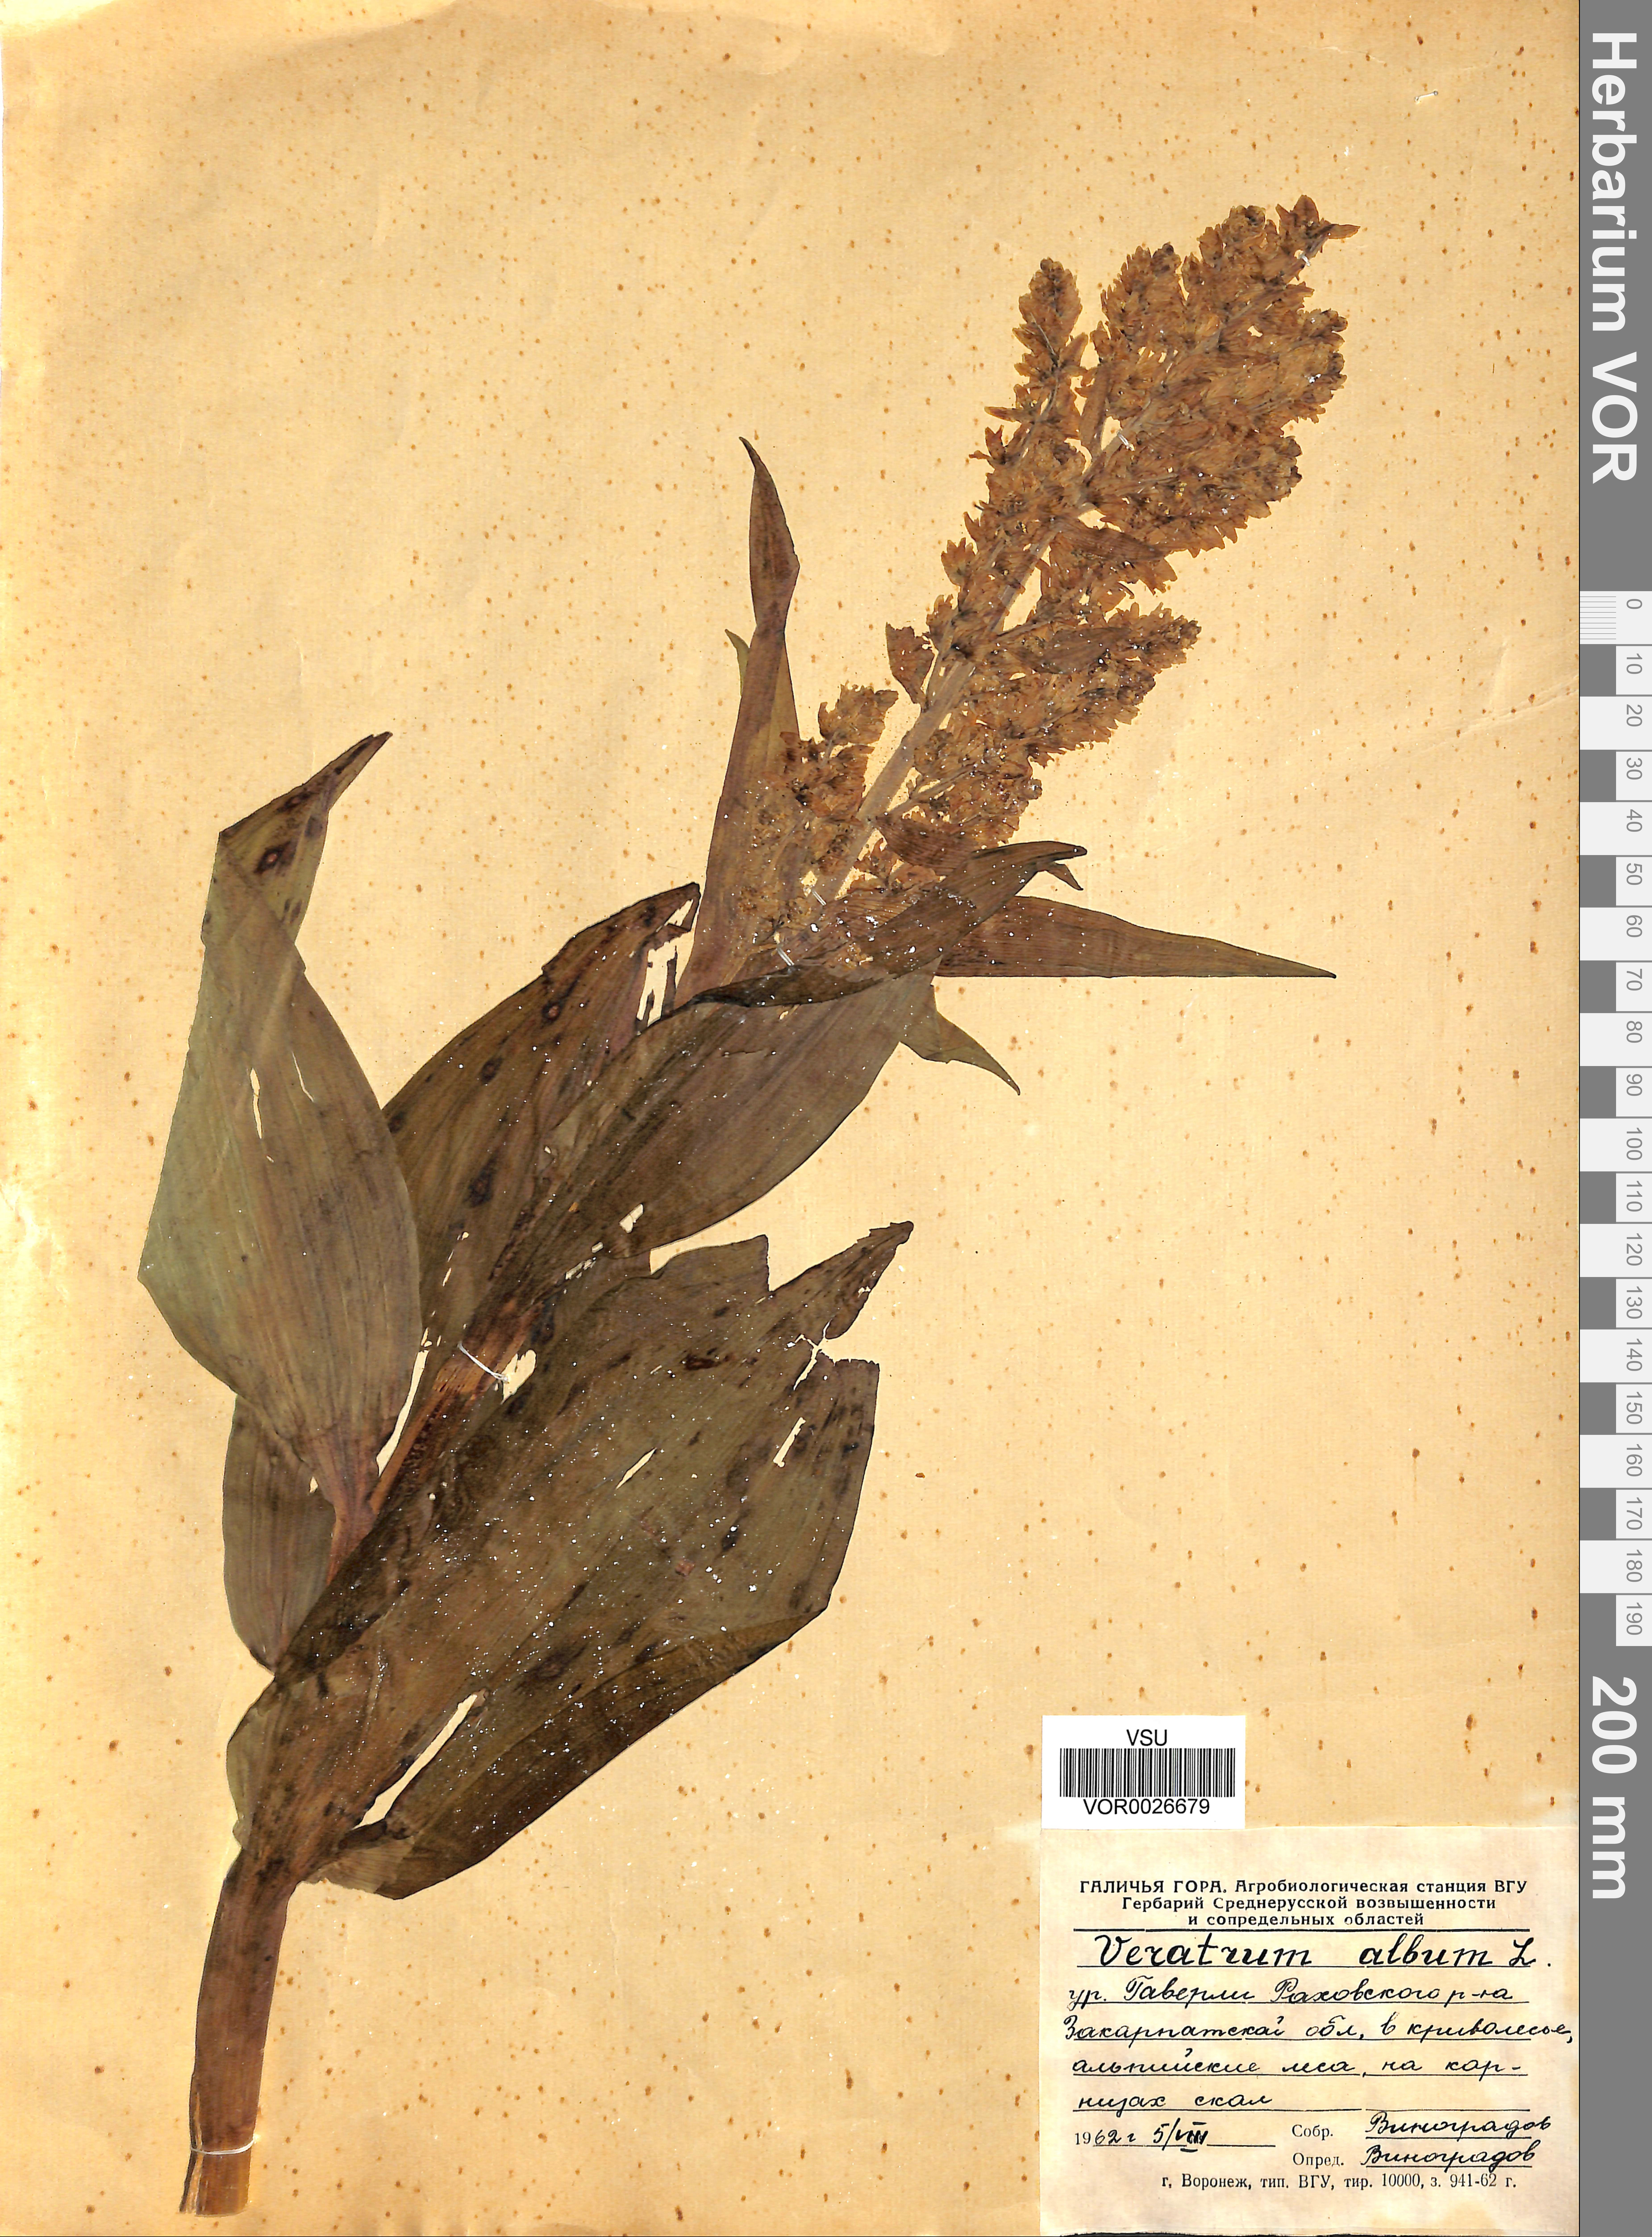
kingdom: Plantae
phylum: Tracheophyta
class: Liliopsida
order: Liliales
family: Melanthiaceae
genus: Veratrum
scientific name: Veratrum album
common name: White veratrum
